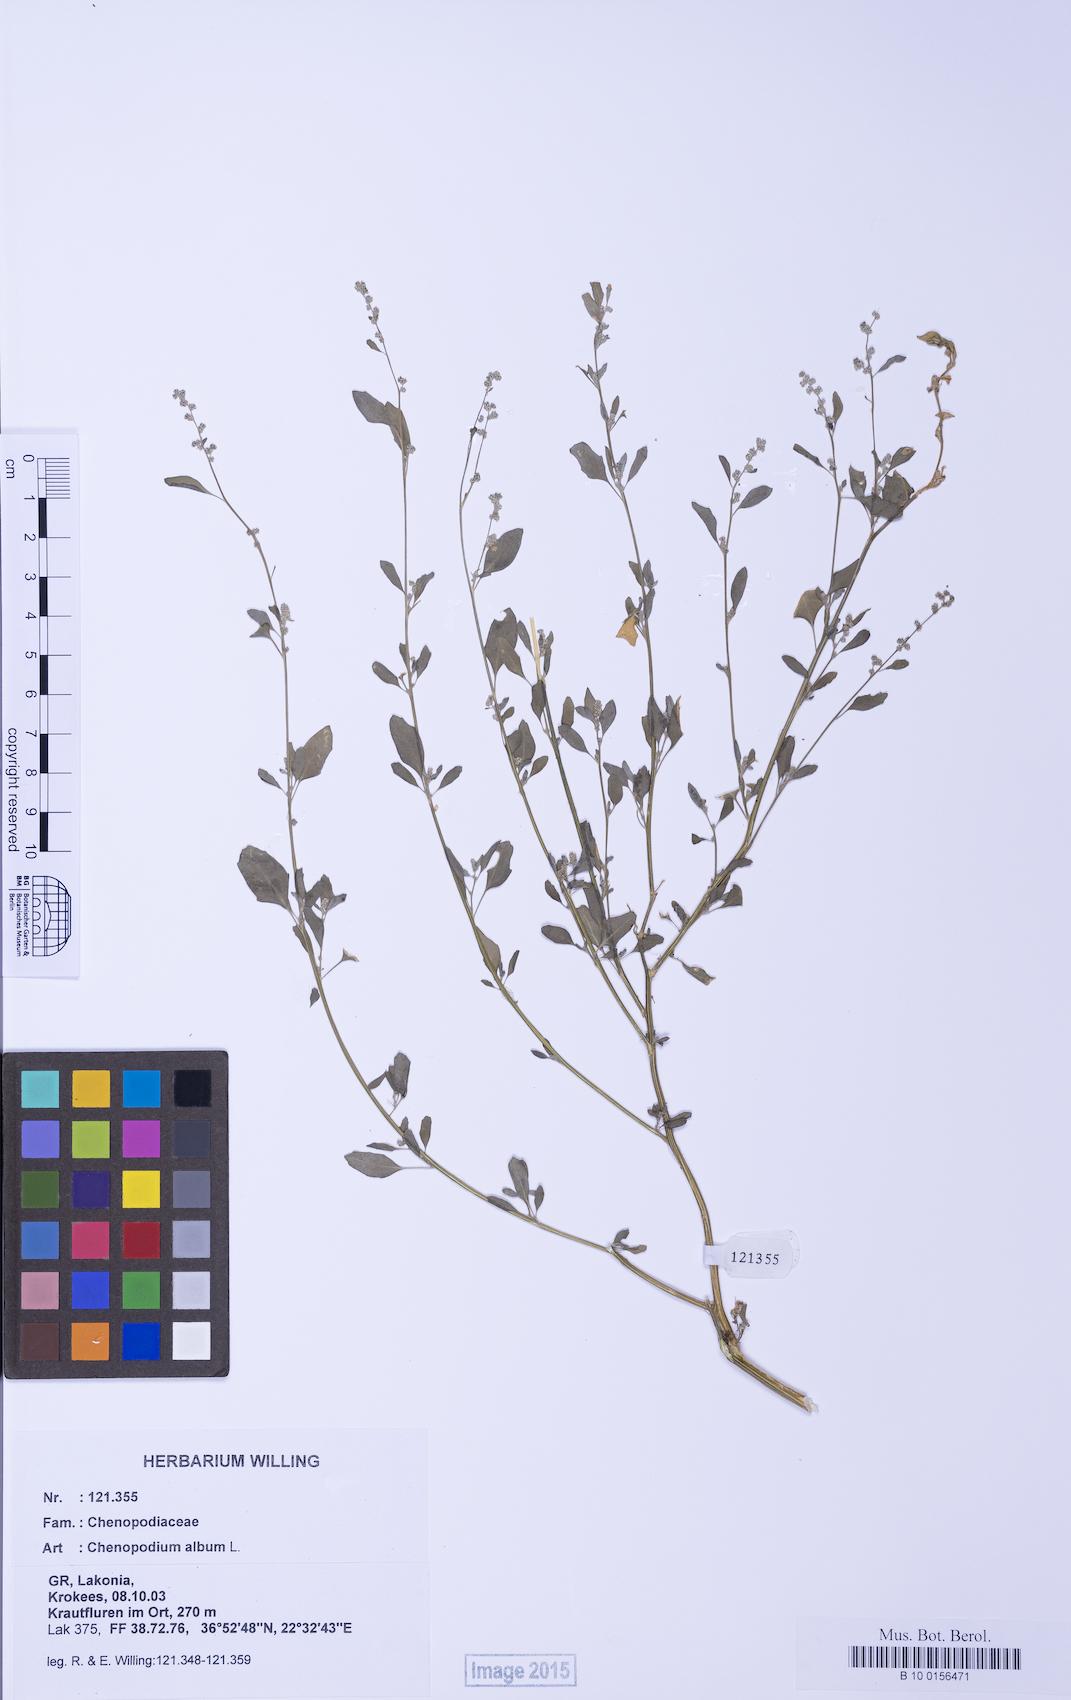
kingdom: Plantae
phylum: Tracheophyta
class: Magnoliopsida
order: Caryophyllales
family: Amaranthaceae
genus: Chenopodium
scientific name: Chenopodium striatiforme
